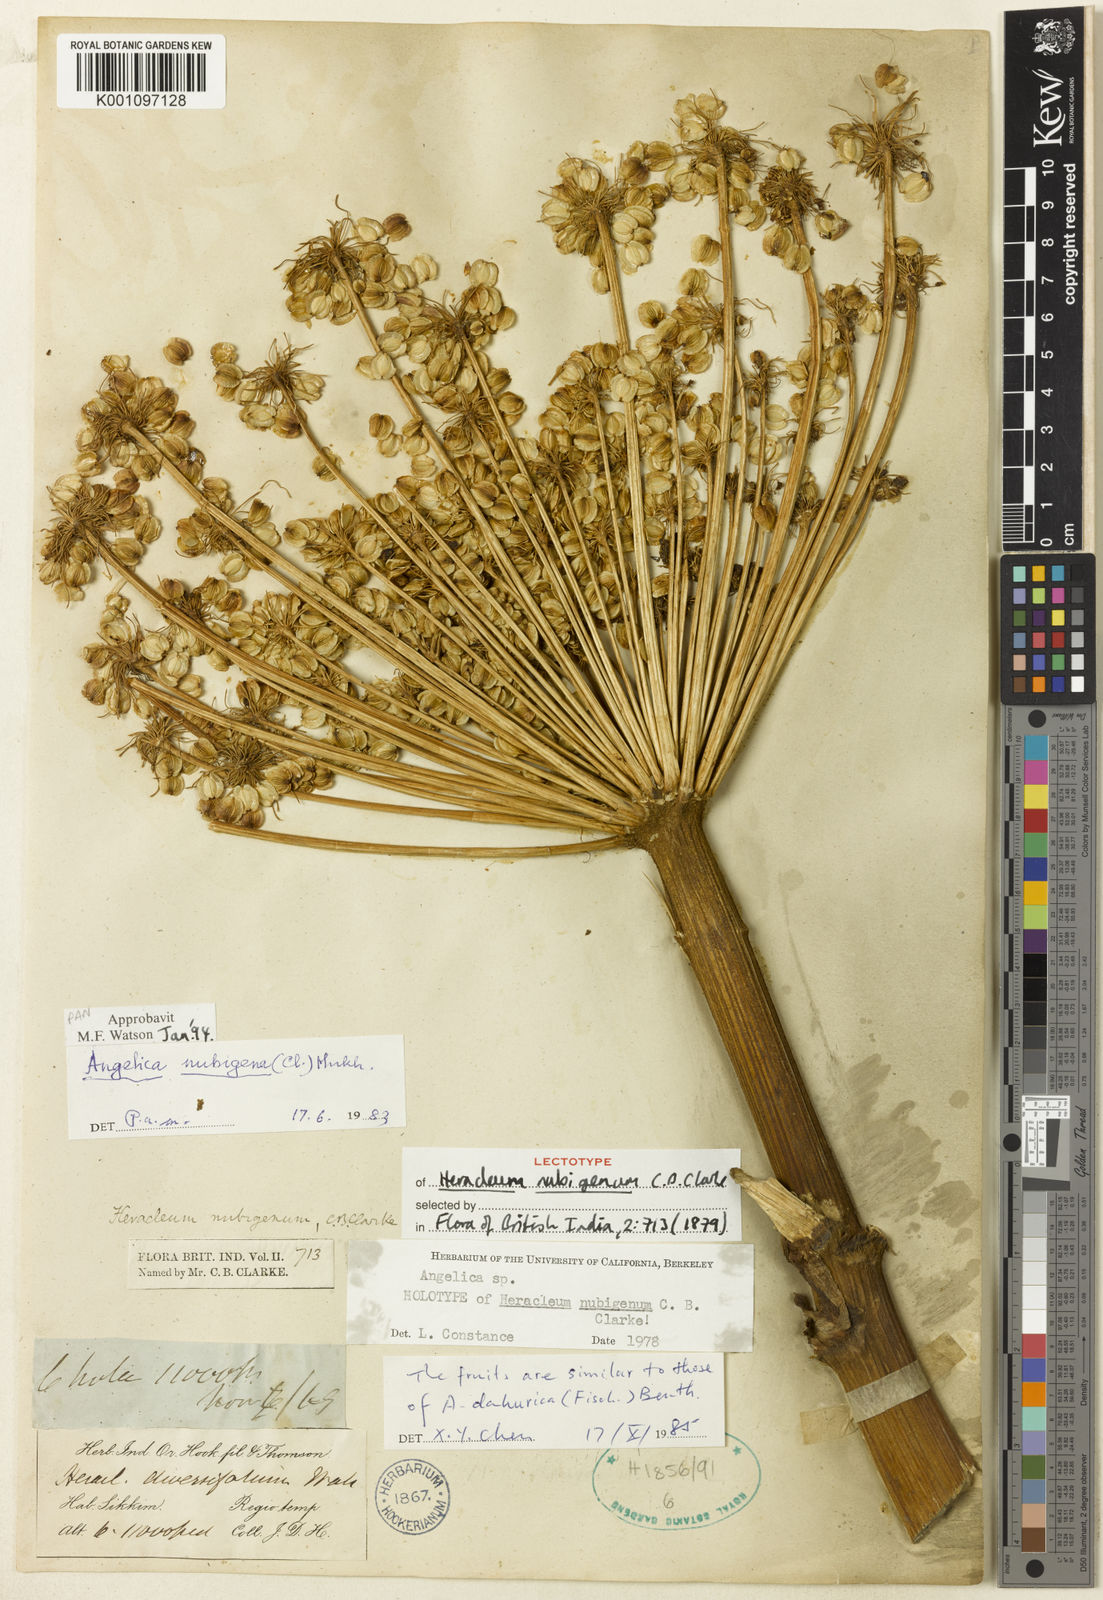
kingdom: Plantae
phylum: Tracheophyta
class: Magnoliopsida
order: Apiales
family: Apiaceae
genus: Angelica
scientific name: Angelica nubigena
